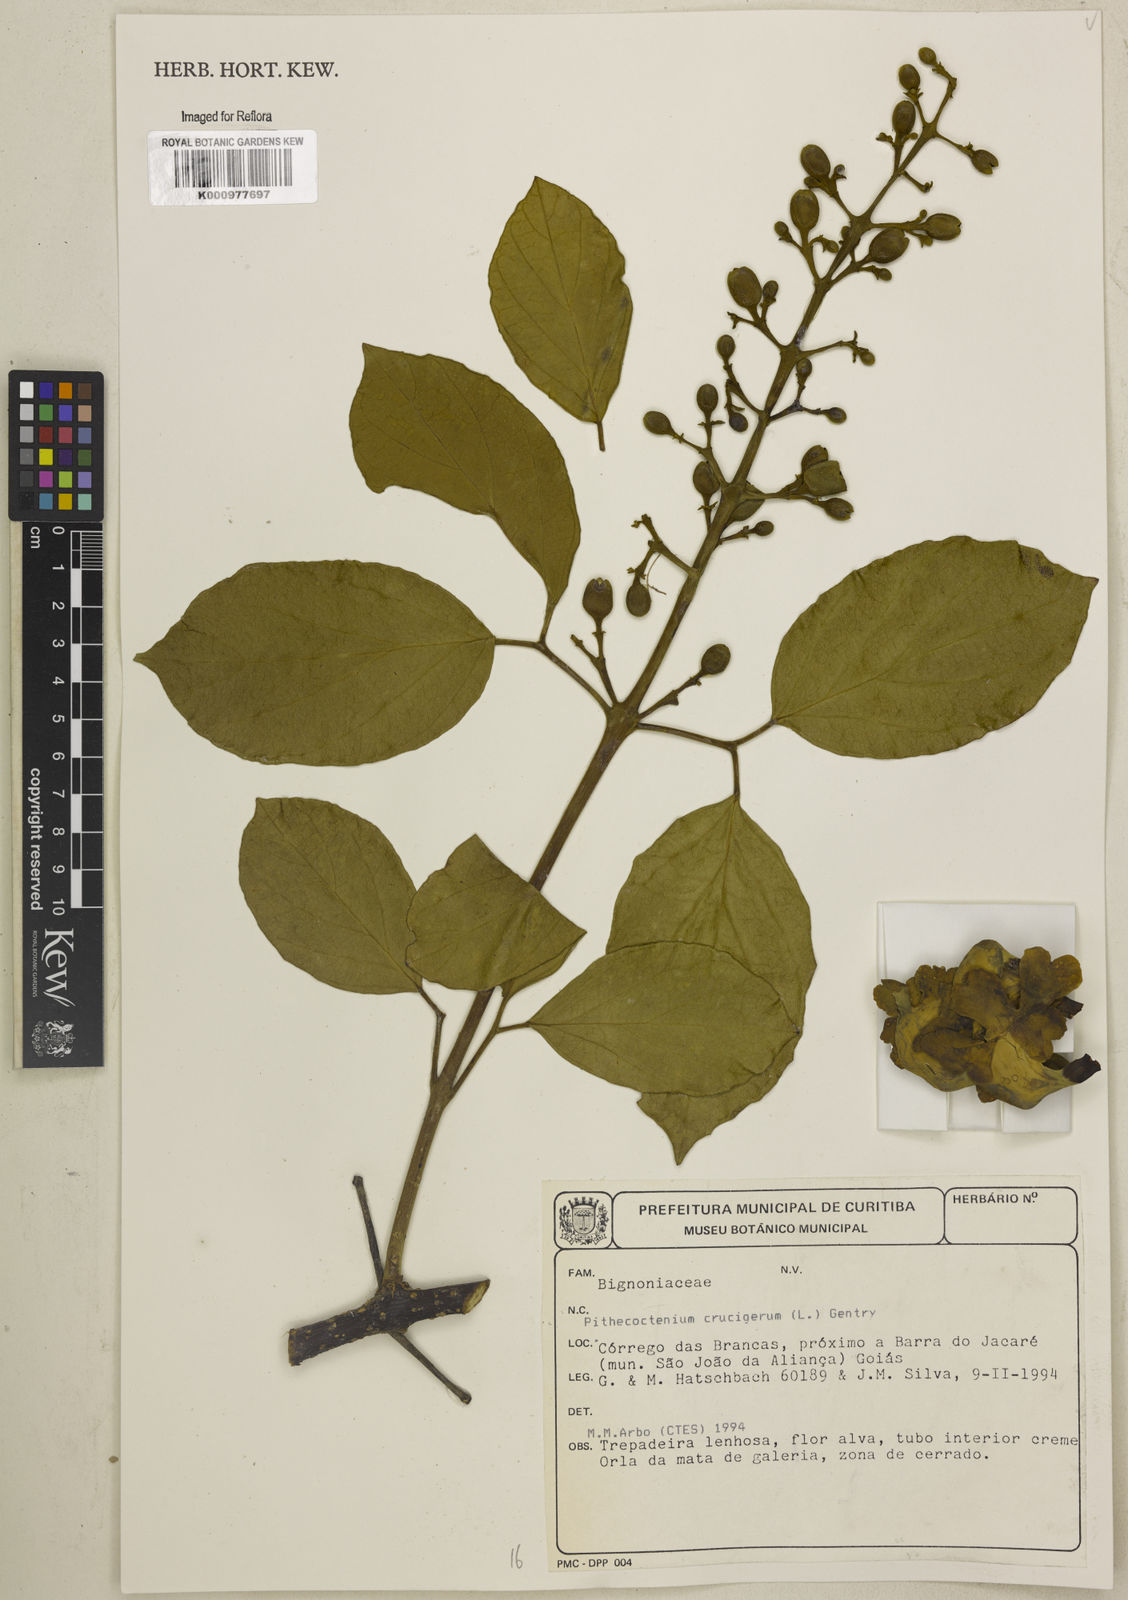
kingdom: Plantae
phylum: Tracheophyta
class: Magnoliopsida
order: Lamiales
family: Bignoniaceae
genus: Amphilophium
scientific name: Amphilophium crucigerum
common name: Monkey comb
